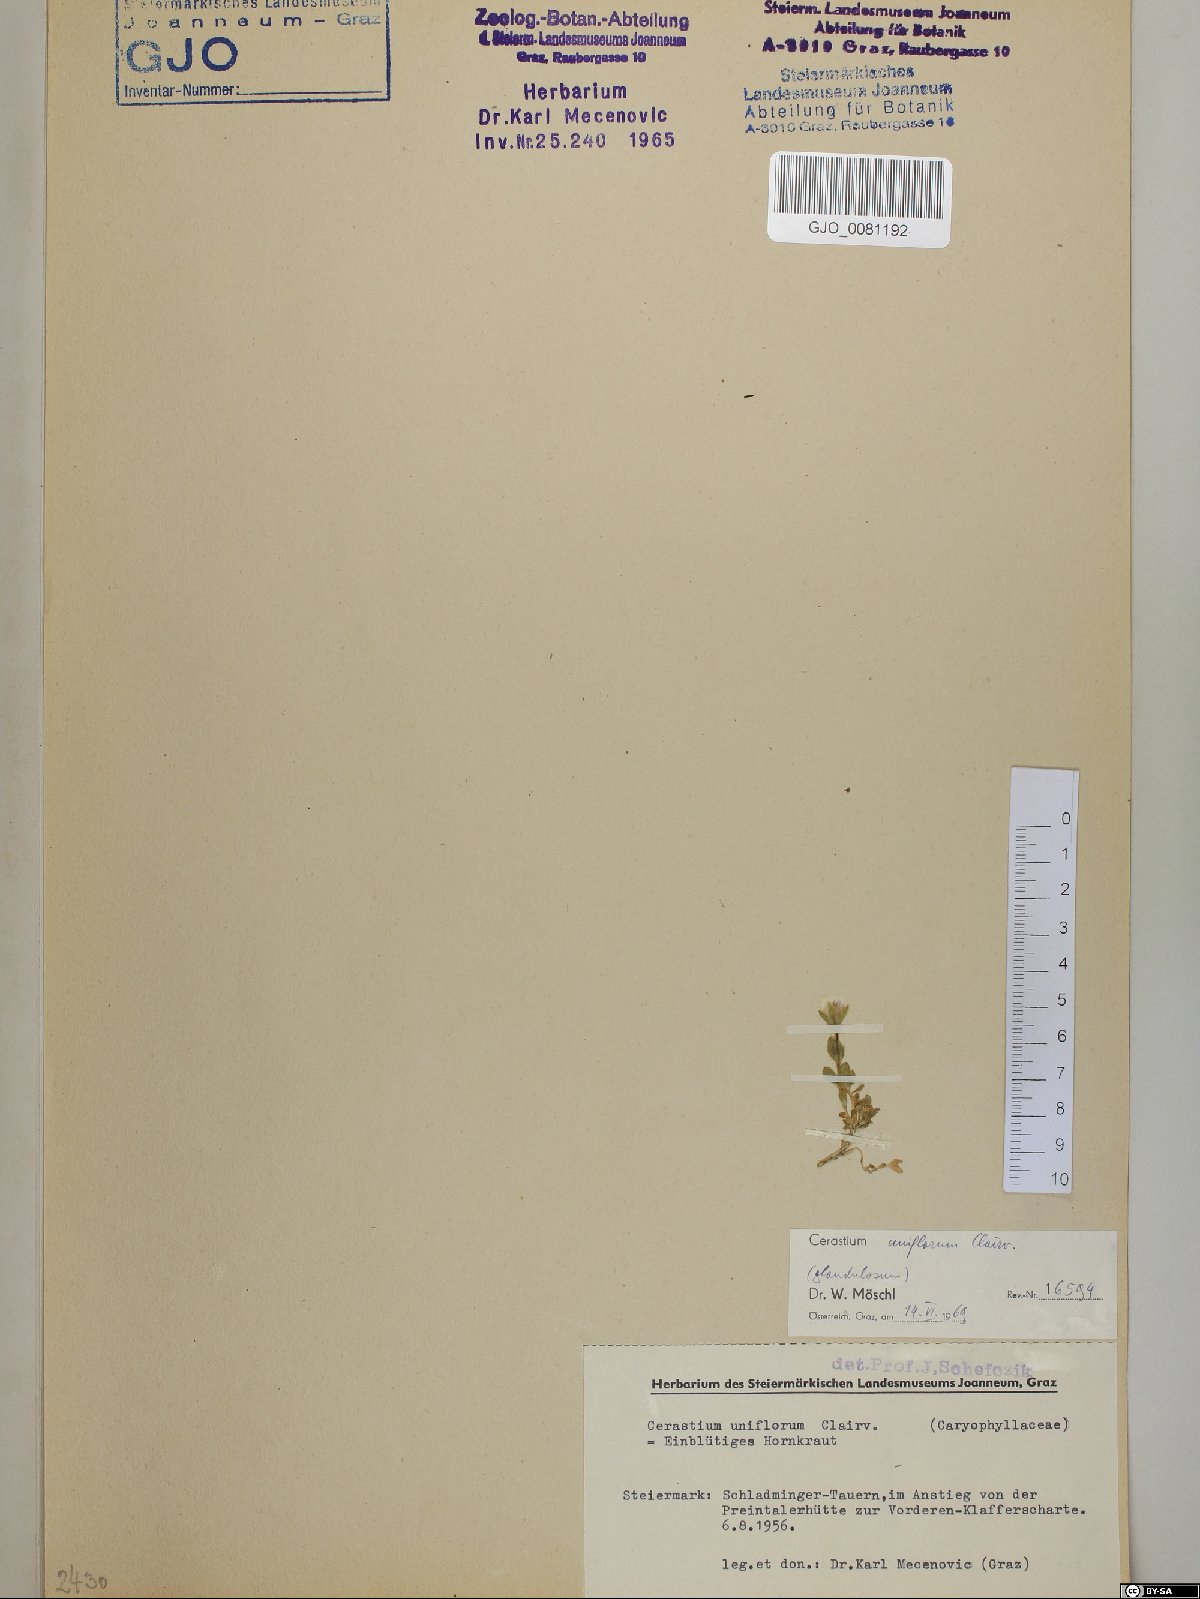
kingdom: Plantae
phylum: Tracheophyta
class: Magnoliopsida
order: Caryophyllales
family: Caryophyllaceae
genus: Cerastium
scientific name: Cerastium uniflorum
